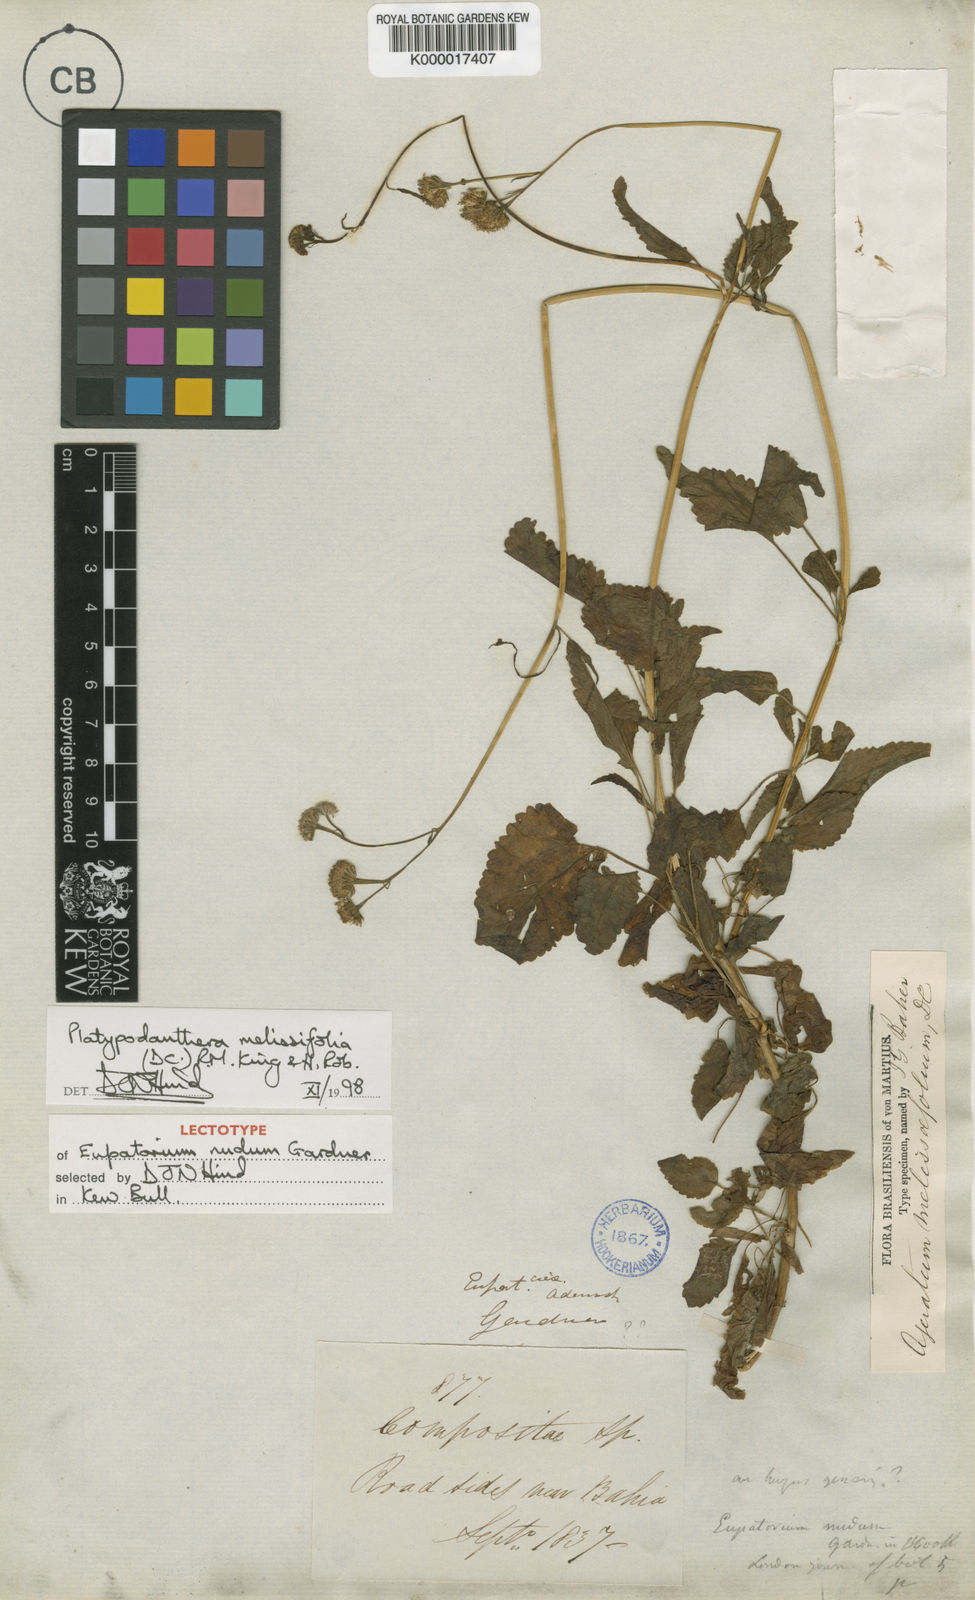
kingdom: Plantae
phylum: Tracheophyta
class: Magnoliopsida
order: Asterales
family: Asteraceae
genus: Platypodanthera
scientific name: Platypodanthera melissifolia
